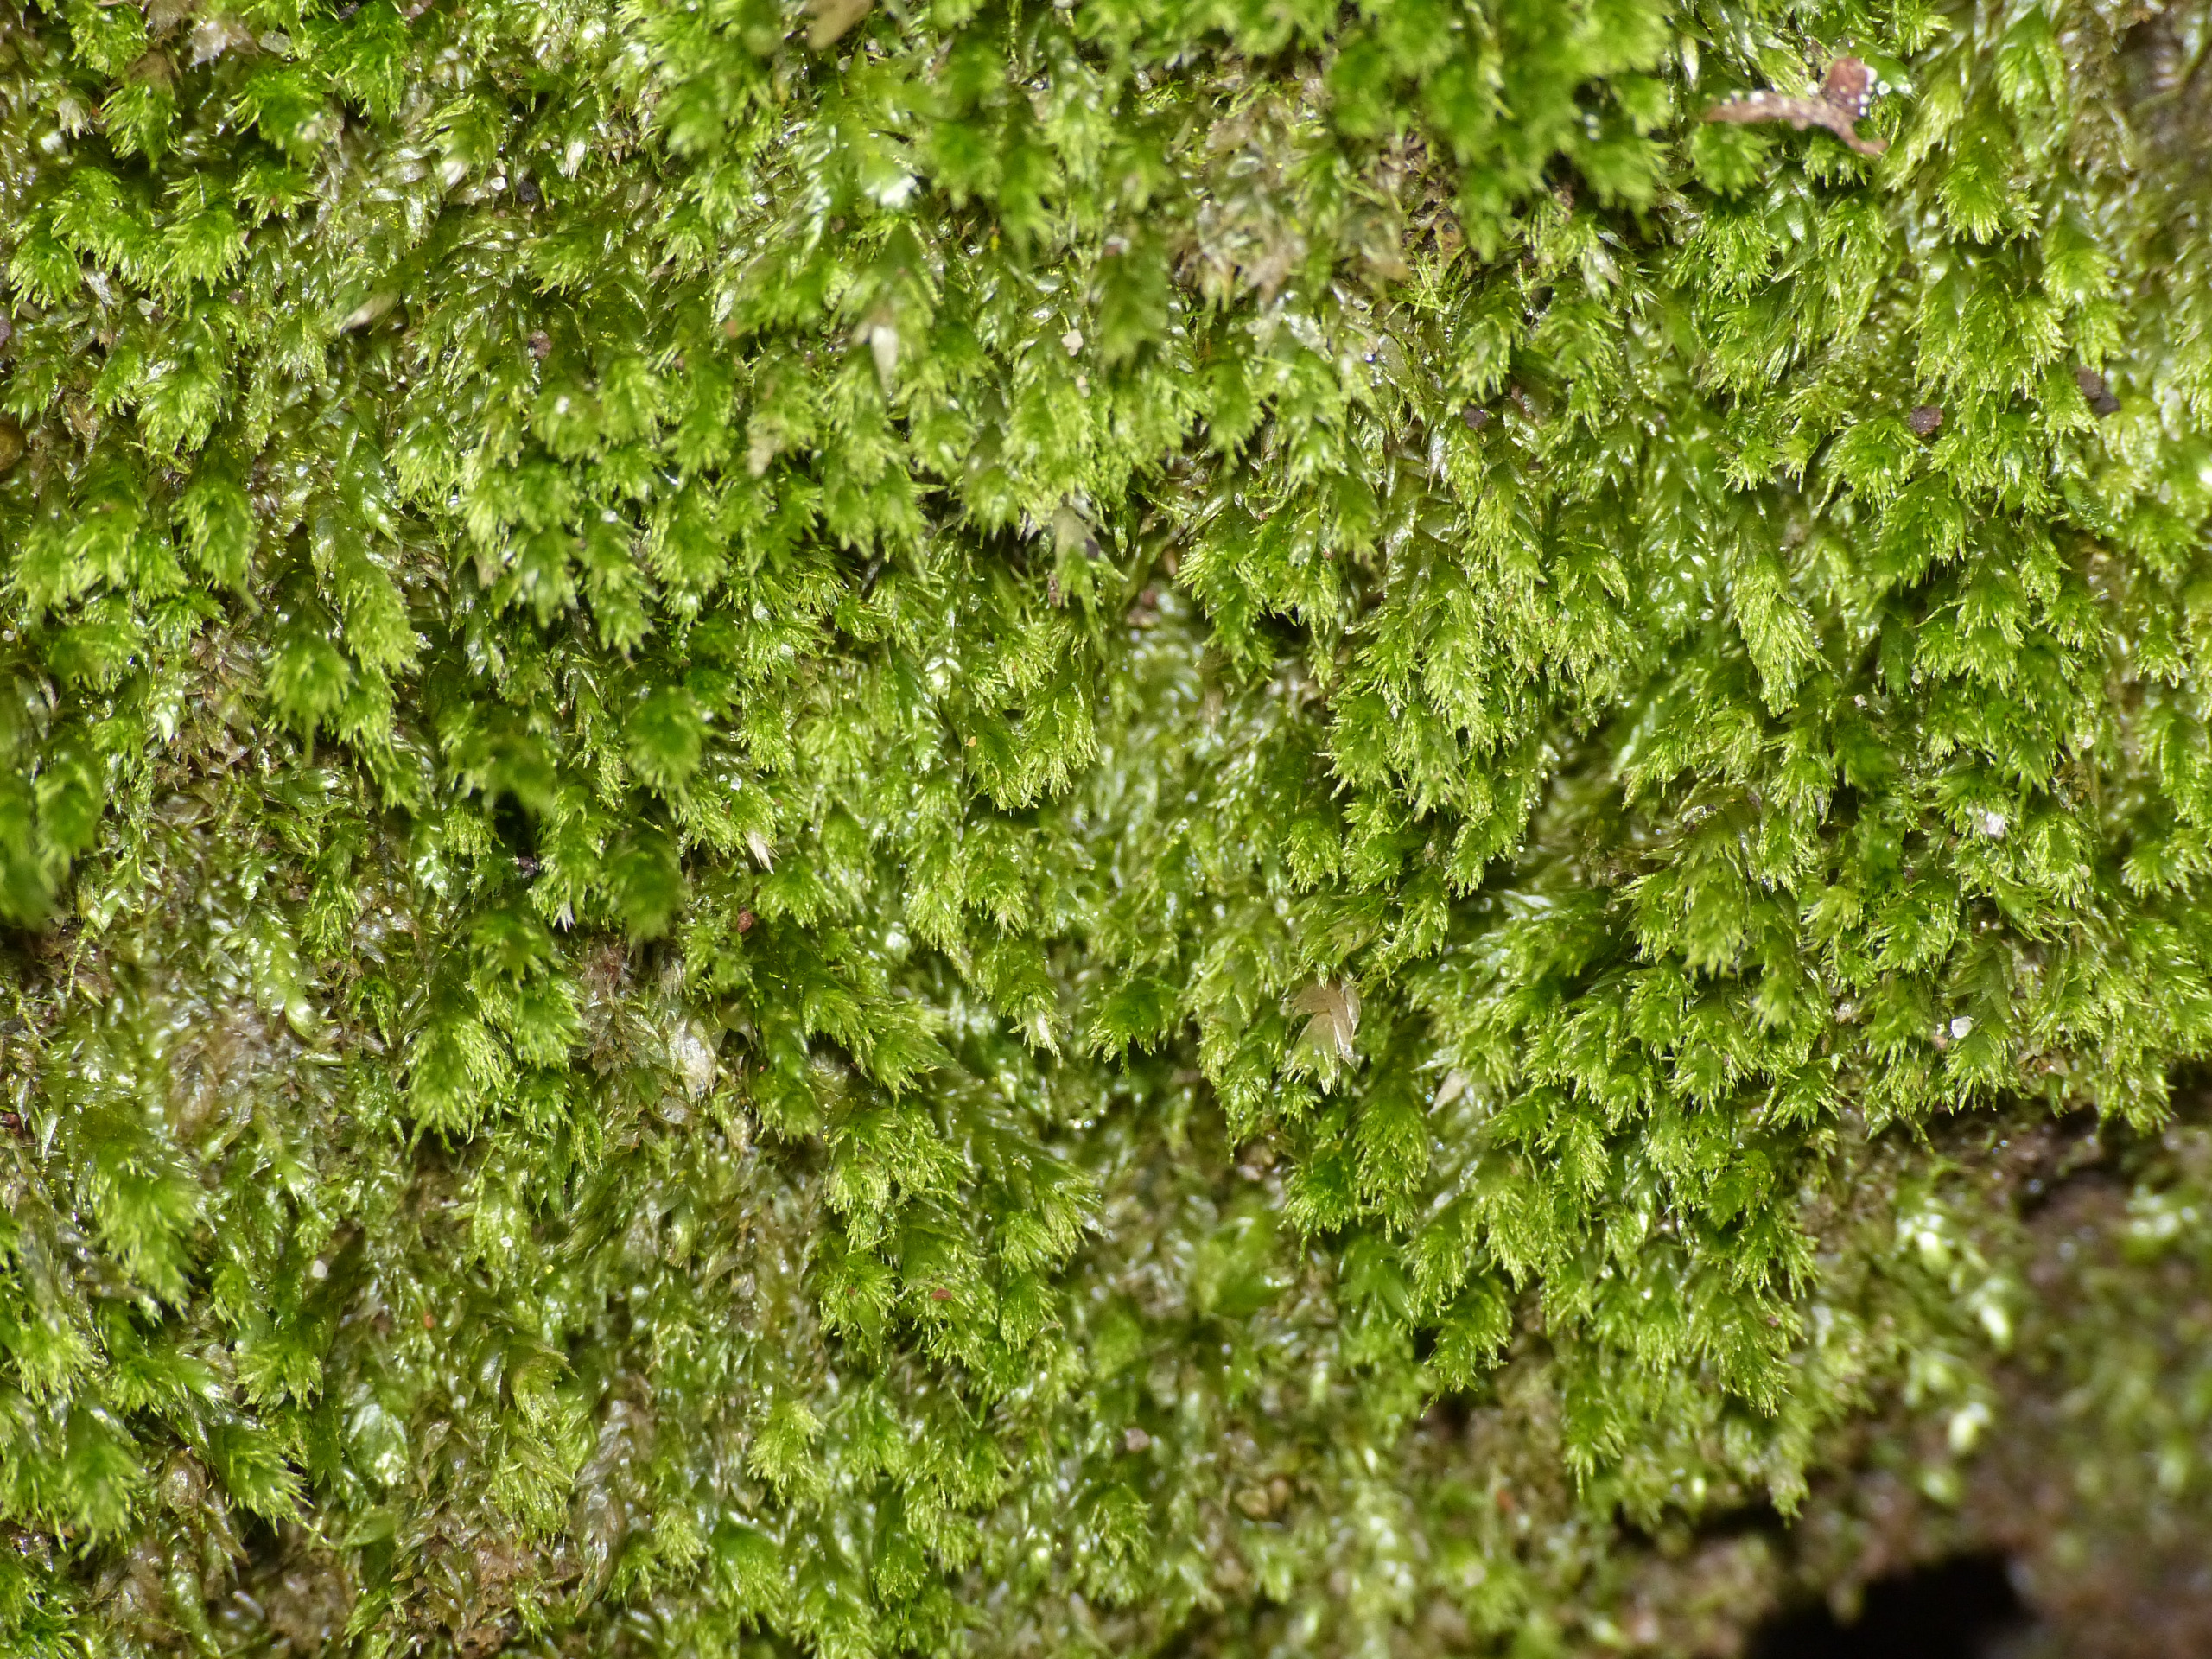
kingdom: Plantae
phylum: Bryophyta
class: Bryopsida
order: Hypnales
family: Plagiotheciaceae
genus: Pseudotaxiphyllum
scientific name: Pseudotaxiphyllum elegans
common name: Skinnende ynglegren
